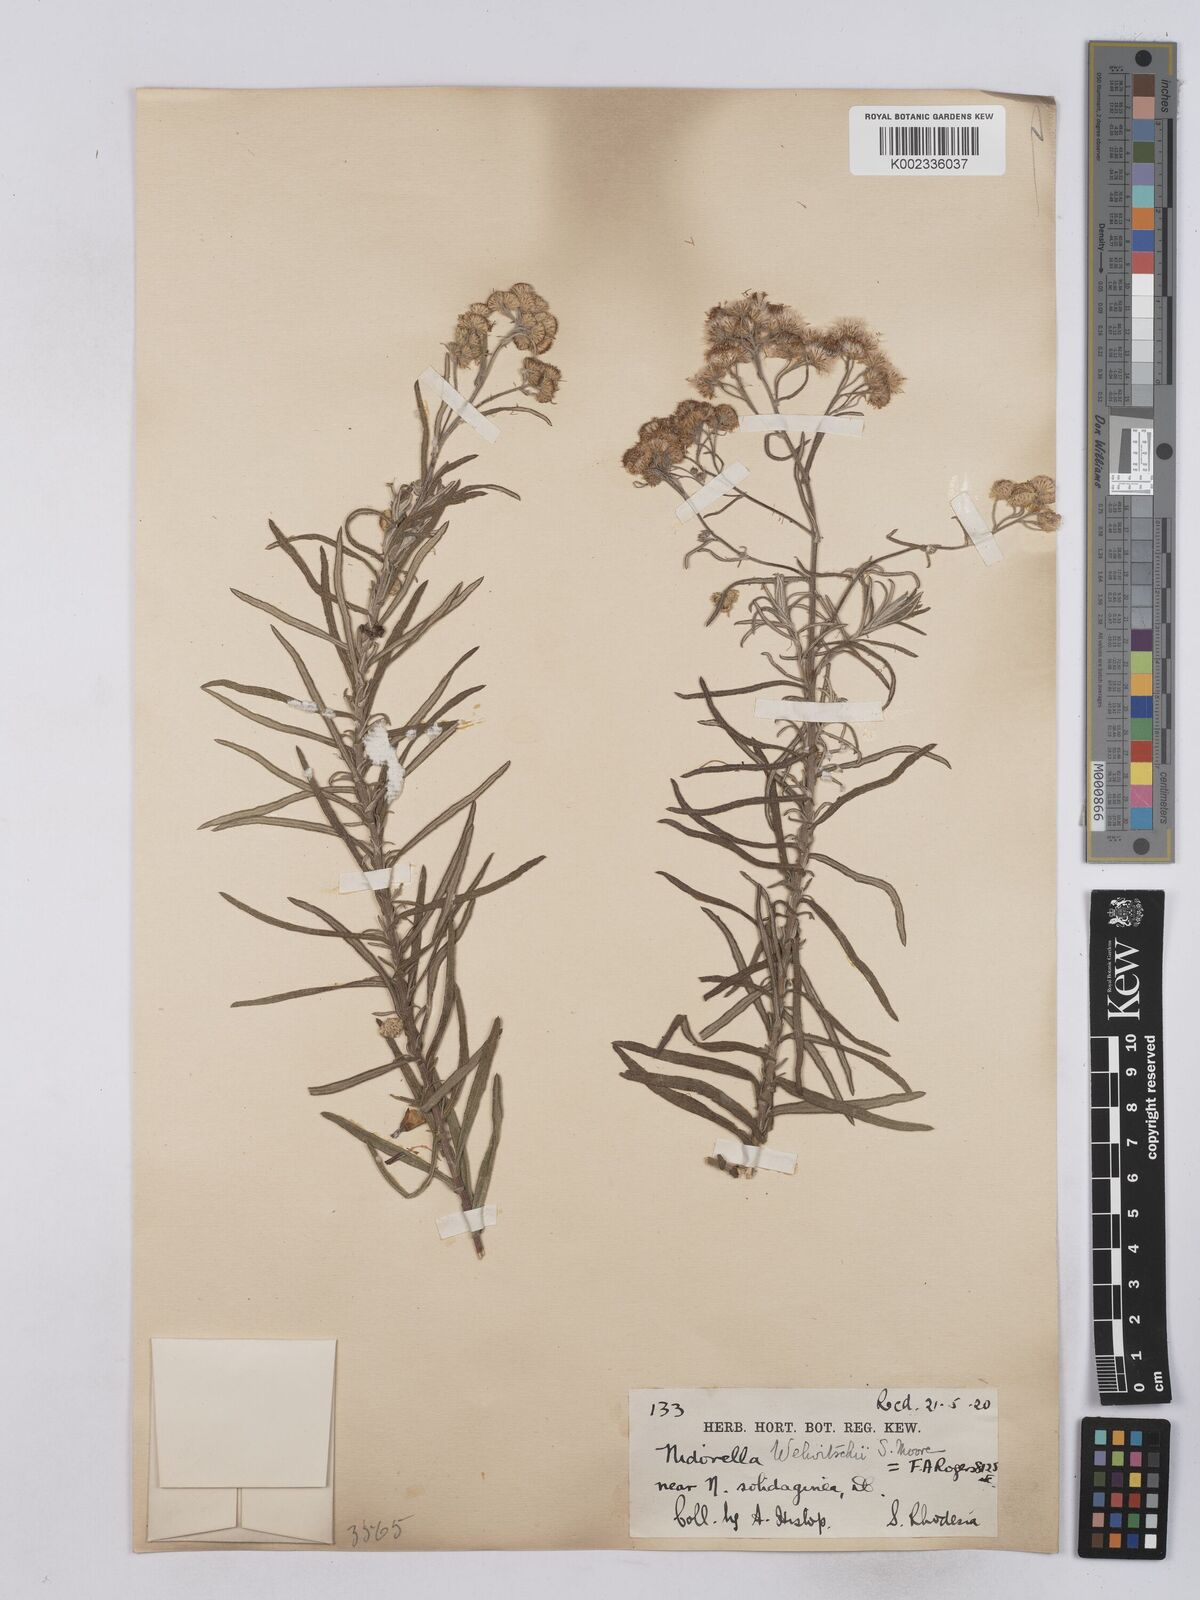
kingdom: Plantae
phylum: Tracheophyta
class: Magnoliopsida
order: Asterales
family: Asteraceae
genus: Nidorella
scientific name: Nidorella welwitschii
